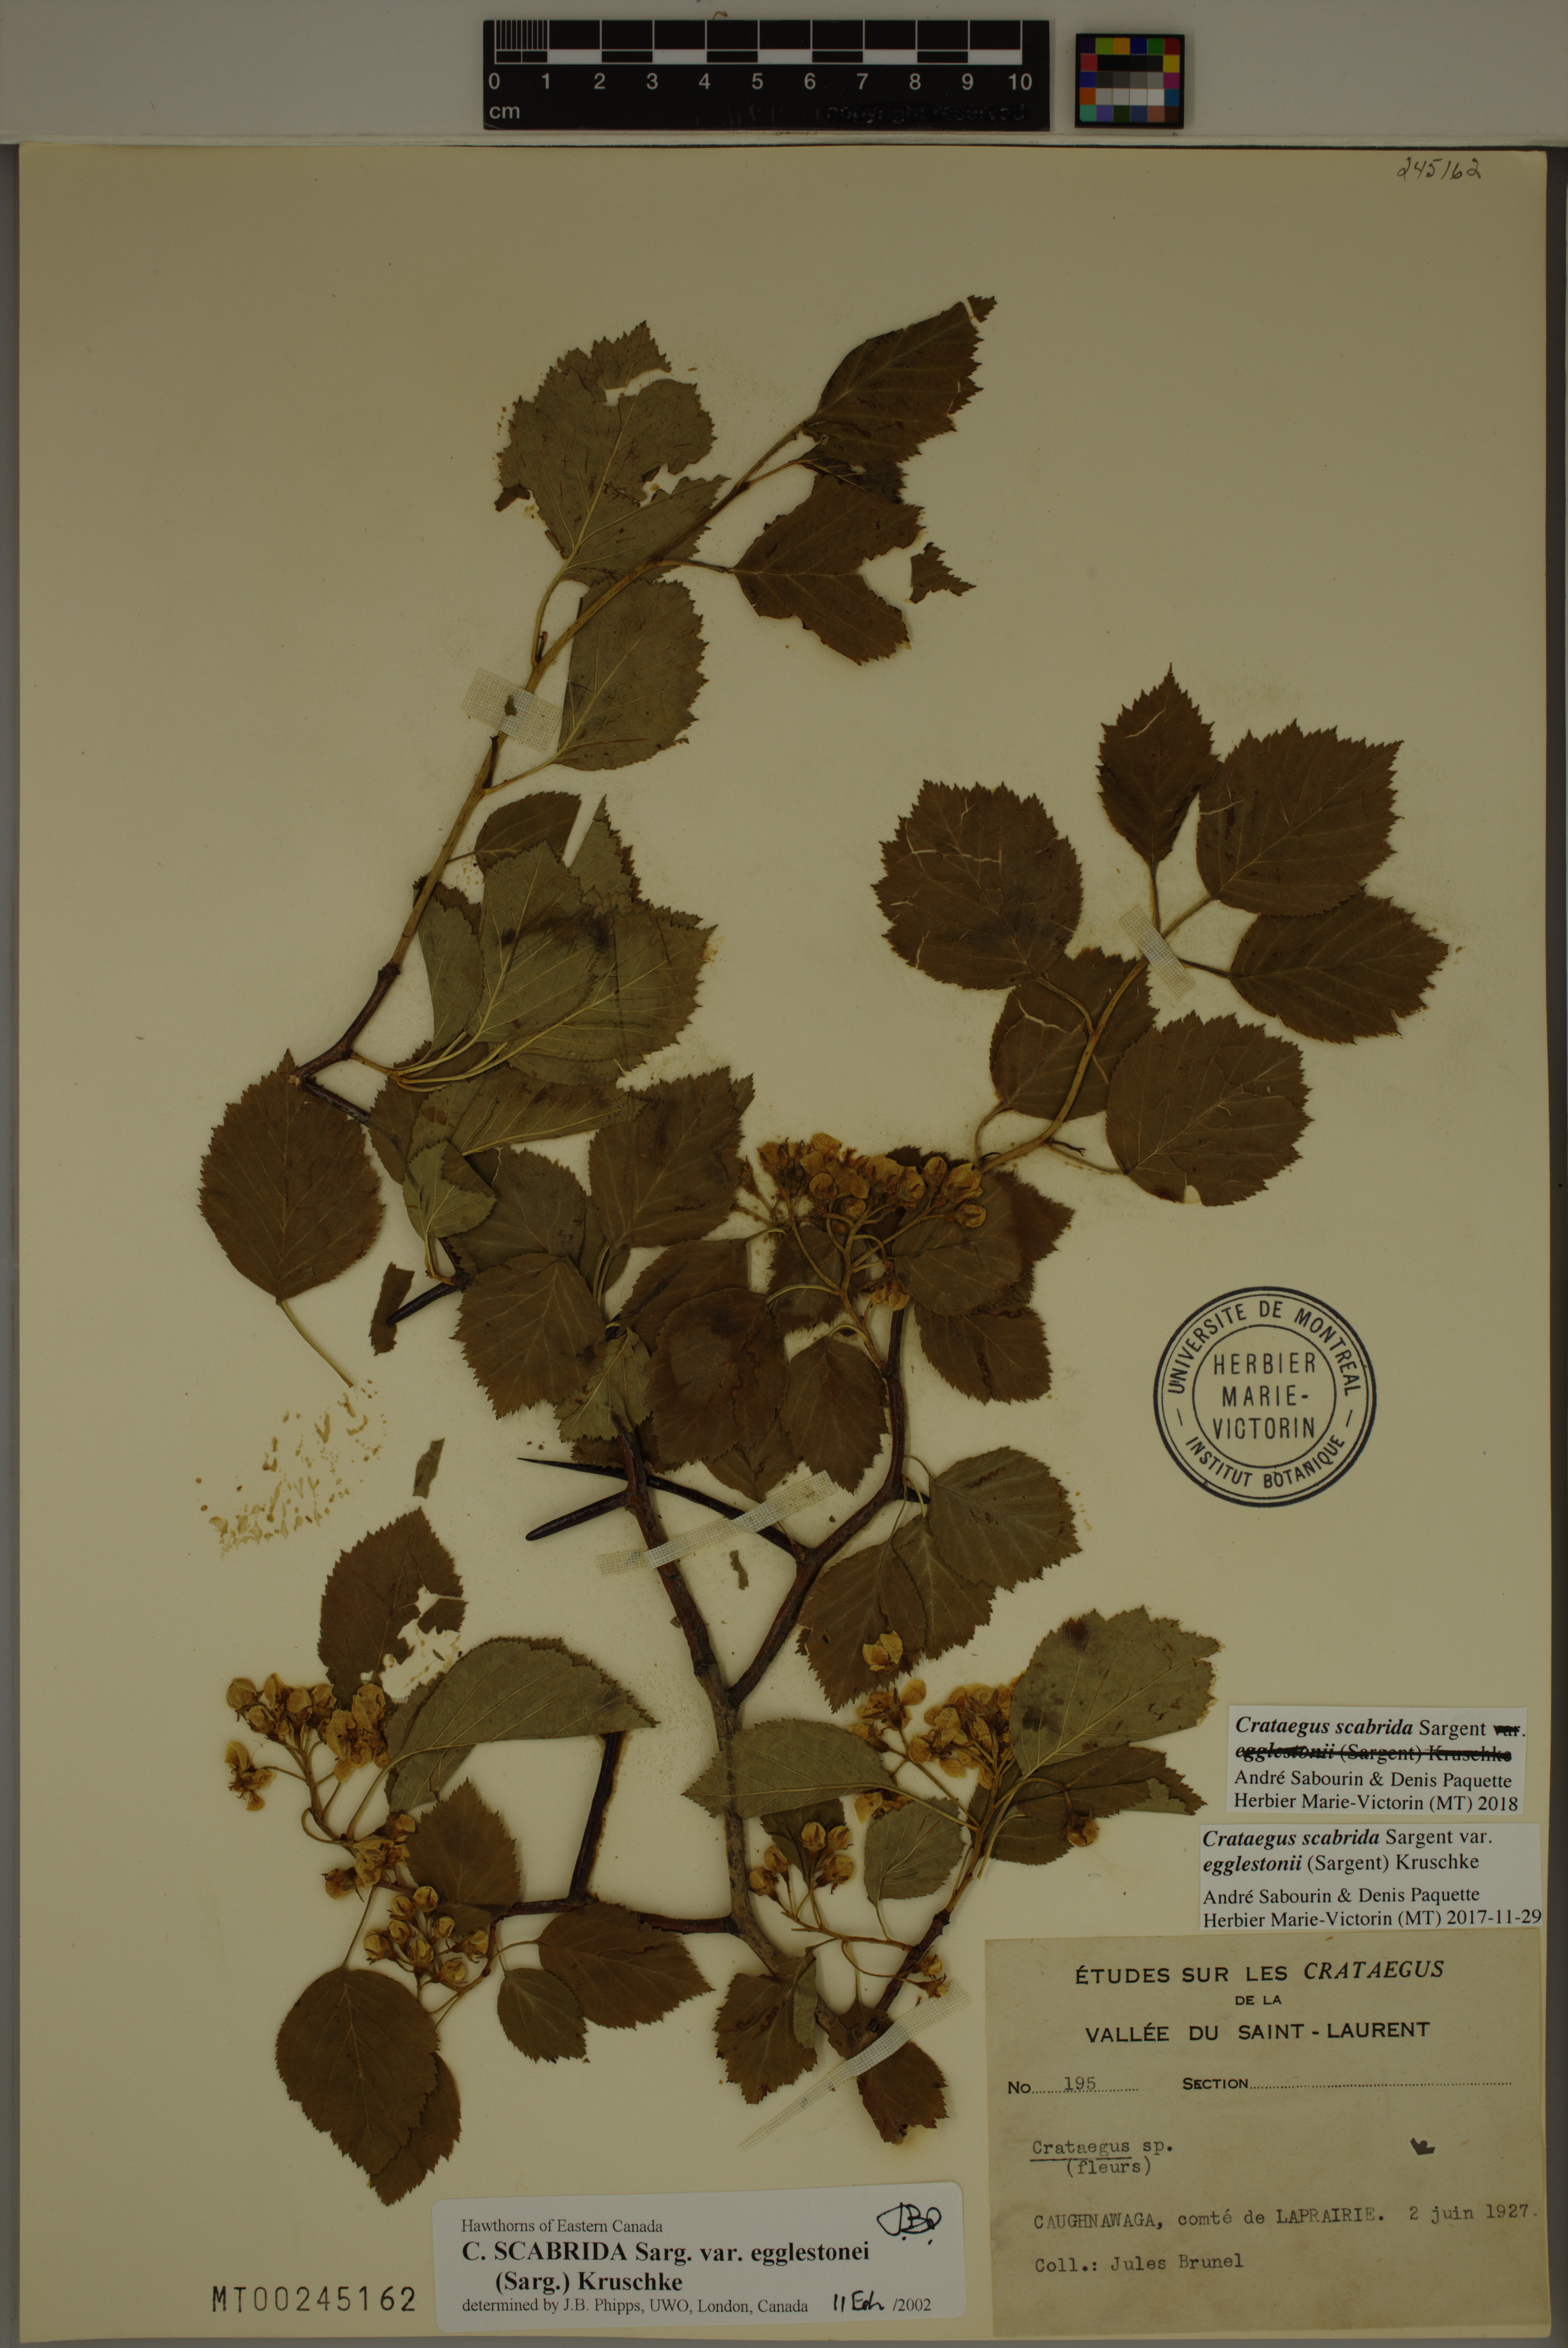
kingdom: Plantae
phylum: Tracheophyta
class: Magnoliopsida
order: Rosales
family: Rosaceae
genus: Crataegus
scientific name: Crataegus scabrida
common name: Rough hawthorn
